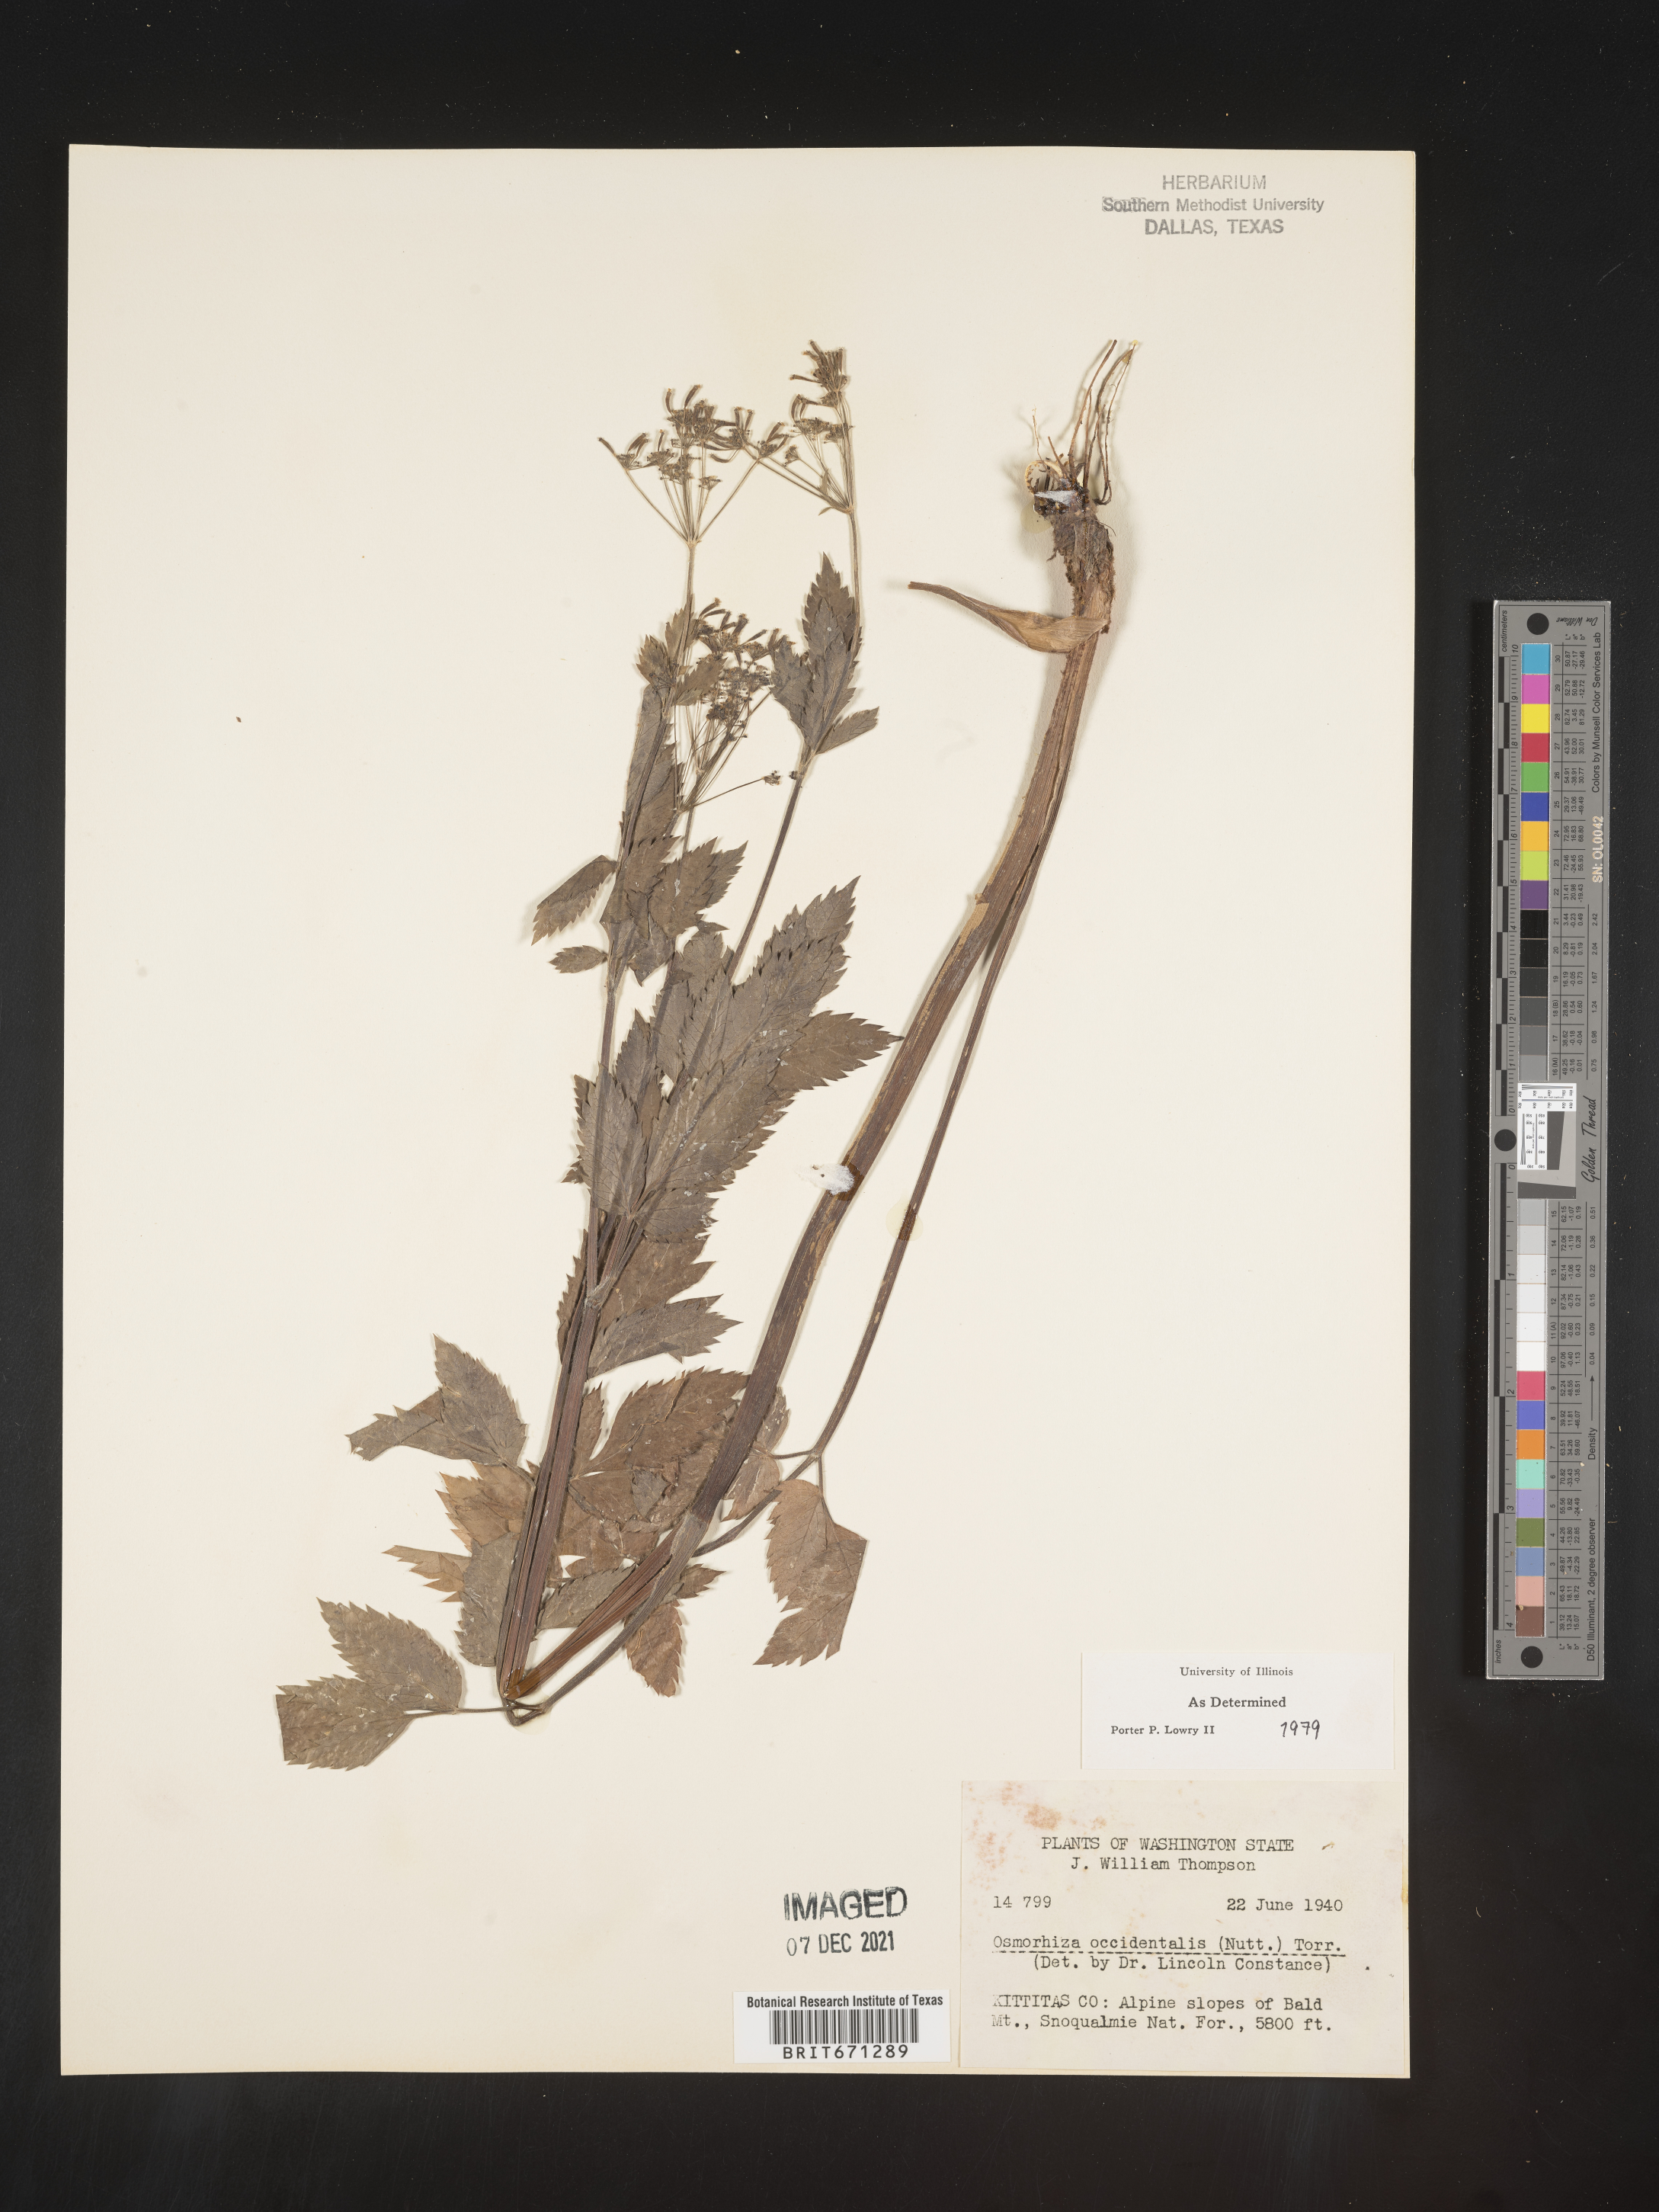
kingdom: Plantae
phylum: Tracheophyta
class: Magnoliopsida
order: Apiales
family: Apiaceae
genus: Osmorhiza
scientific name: Osmorhiza occidentalis
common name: Western sweet cicely
